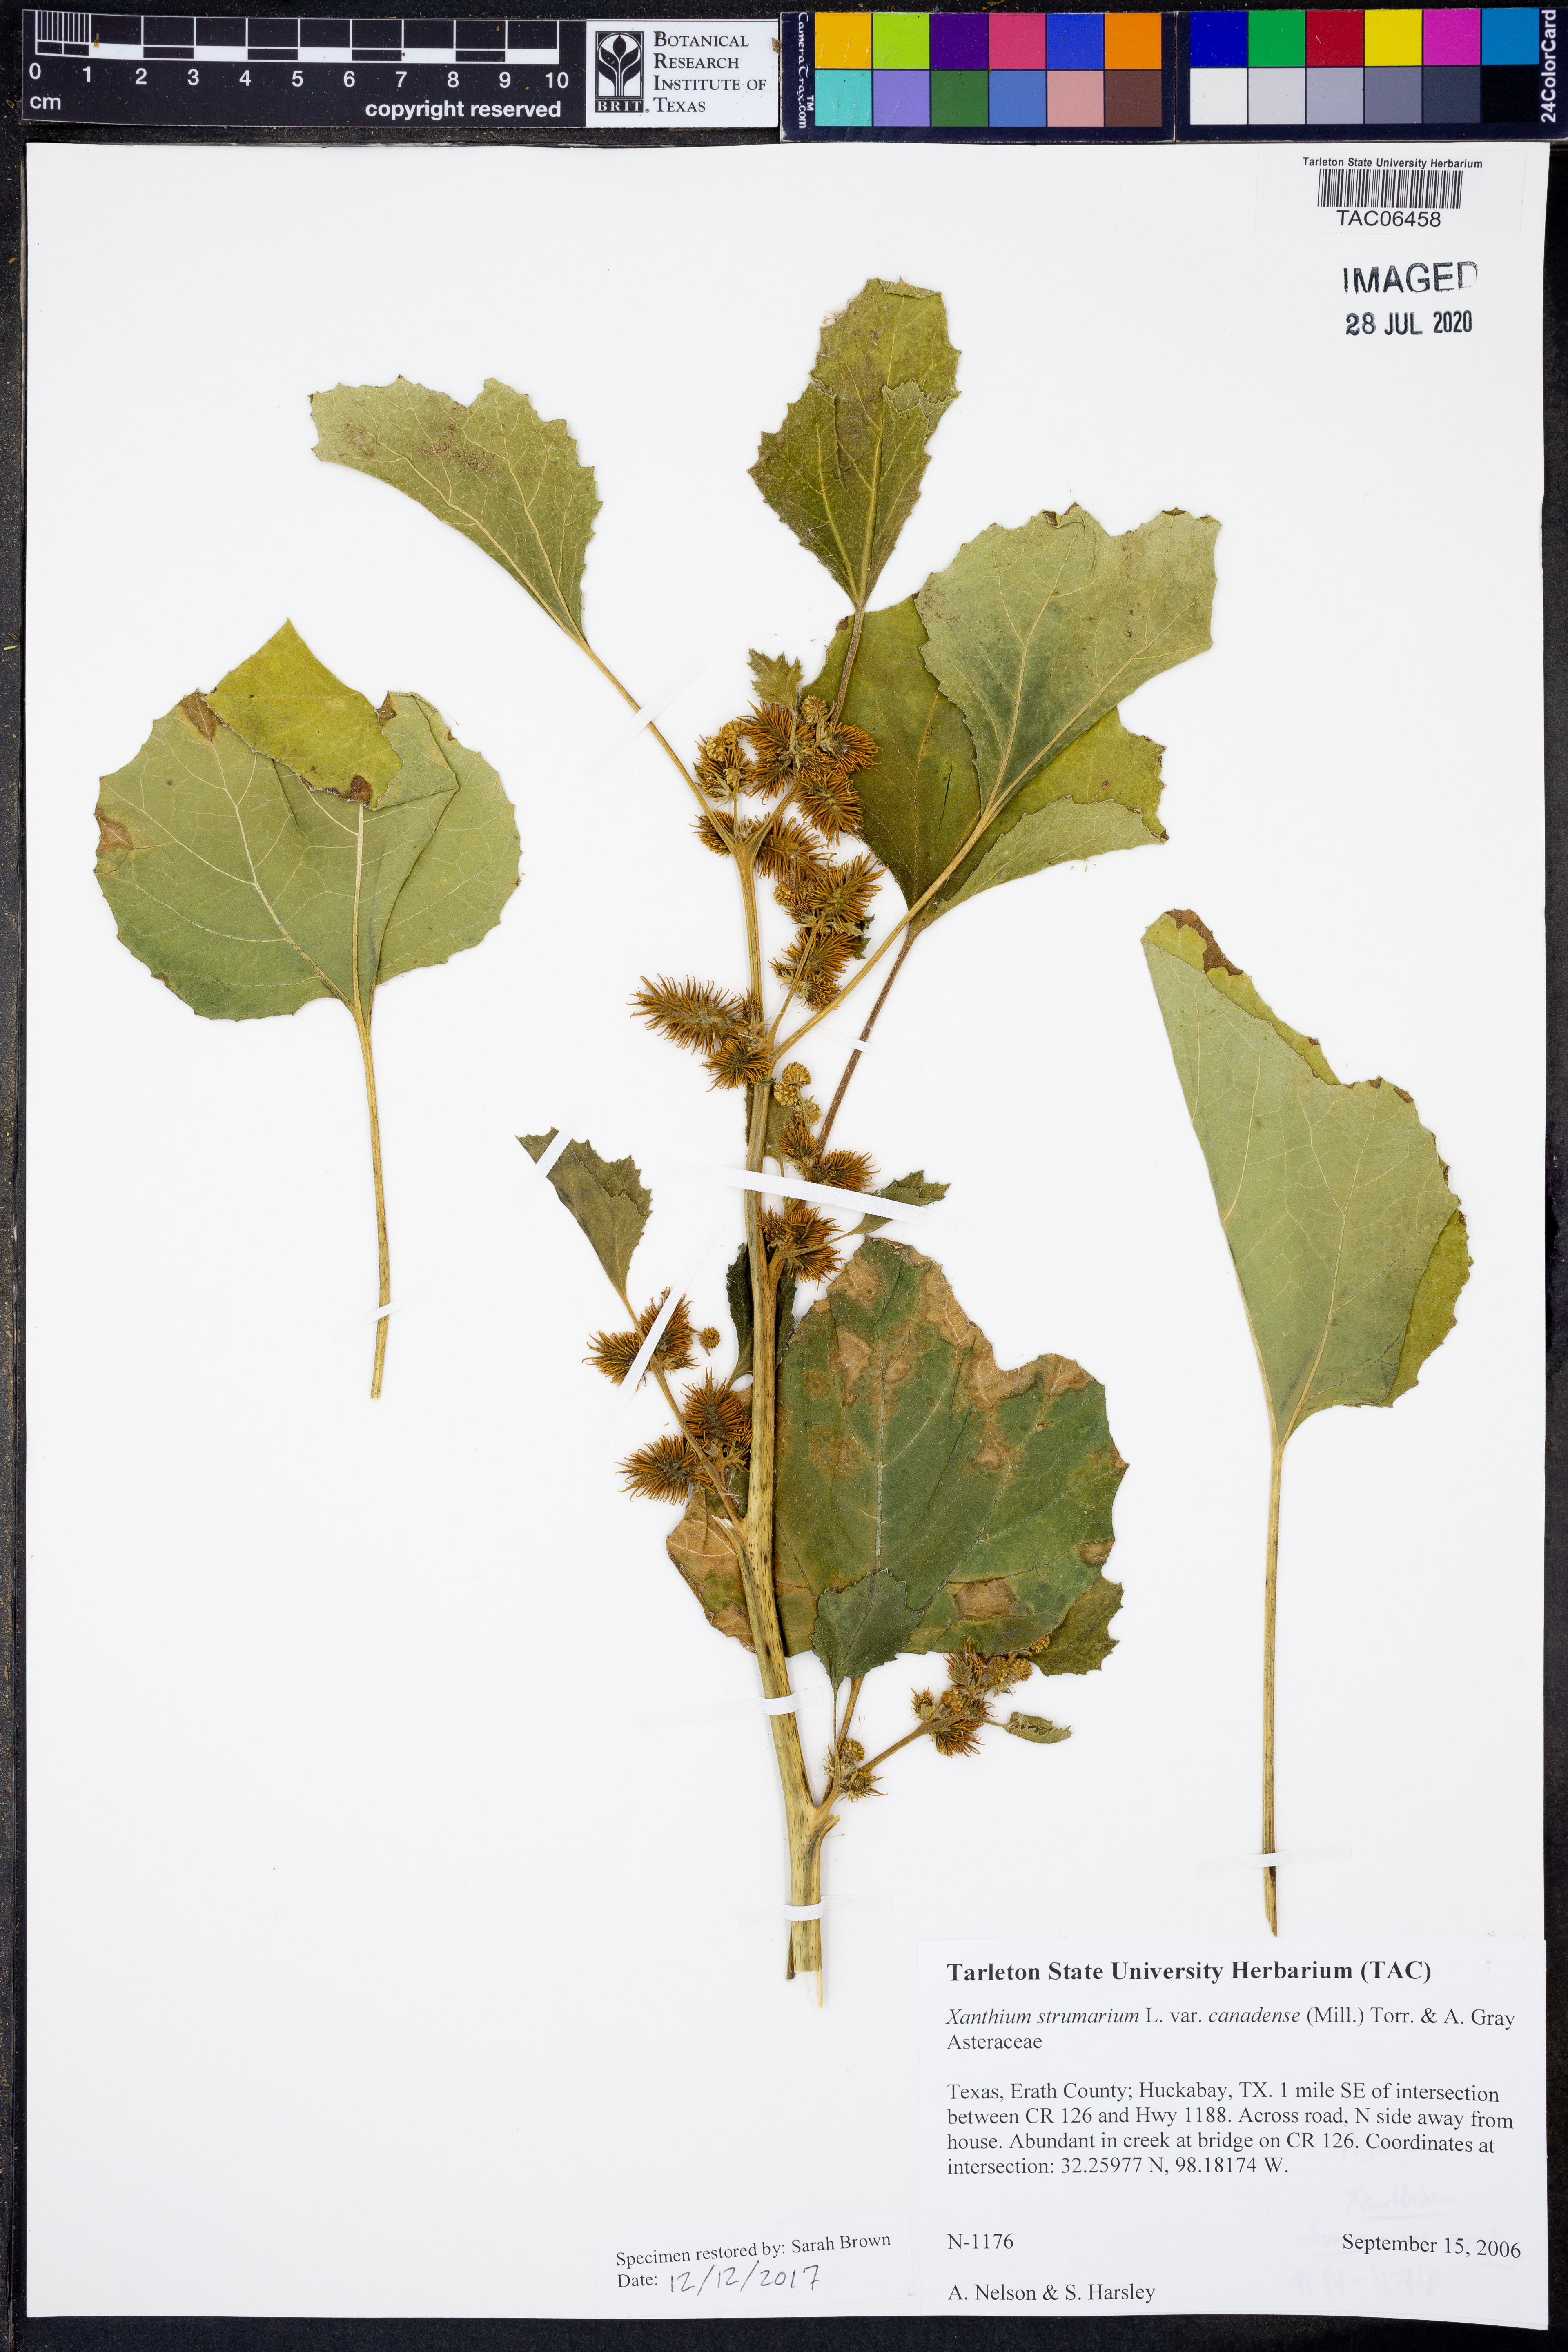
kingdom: Plantae
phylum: Tracheophyta
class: Magnoliopsida
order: Asterales
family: Asteraceae
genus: Xanthium
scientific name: Xanthium orientale
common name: Californian burr
